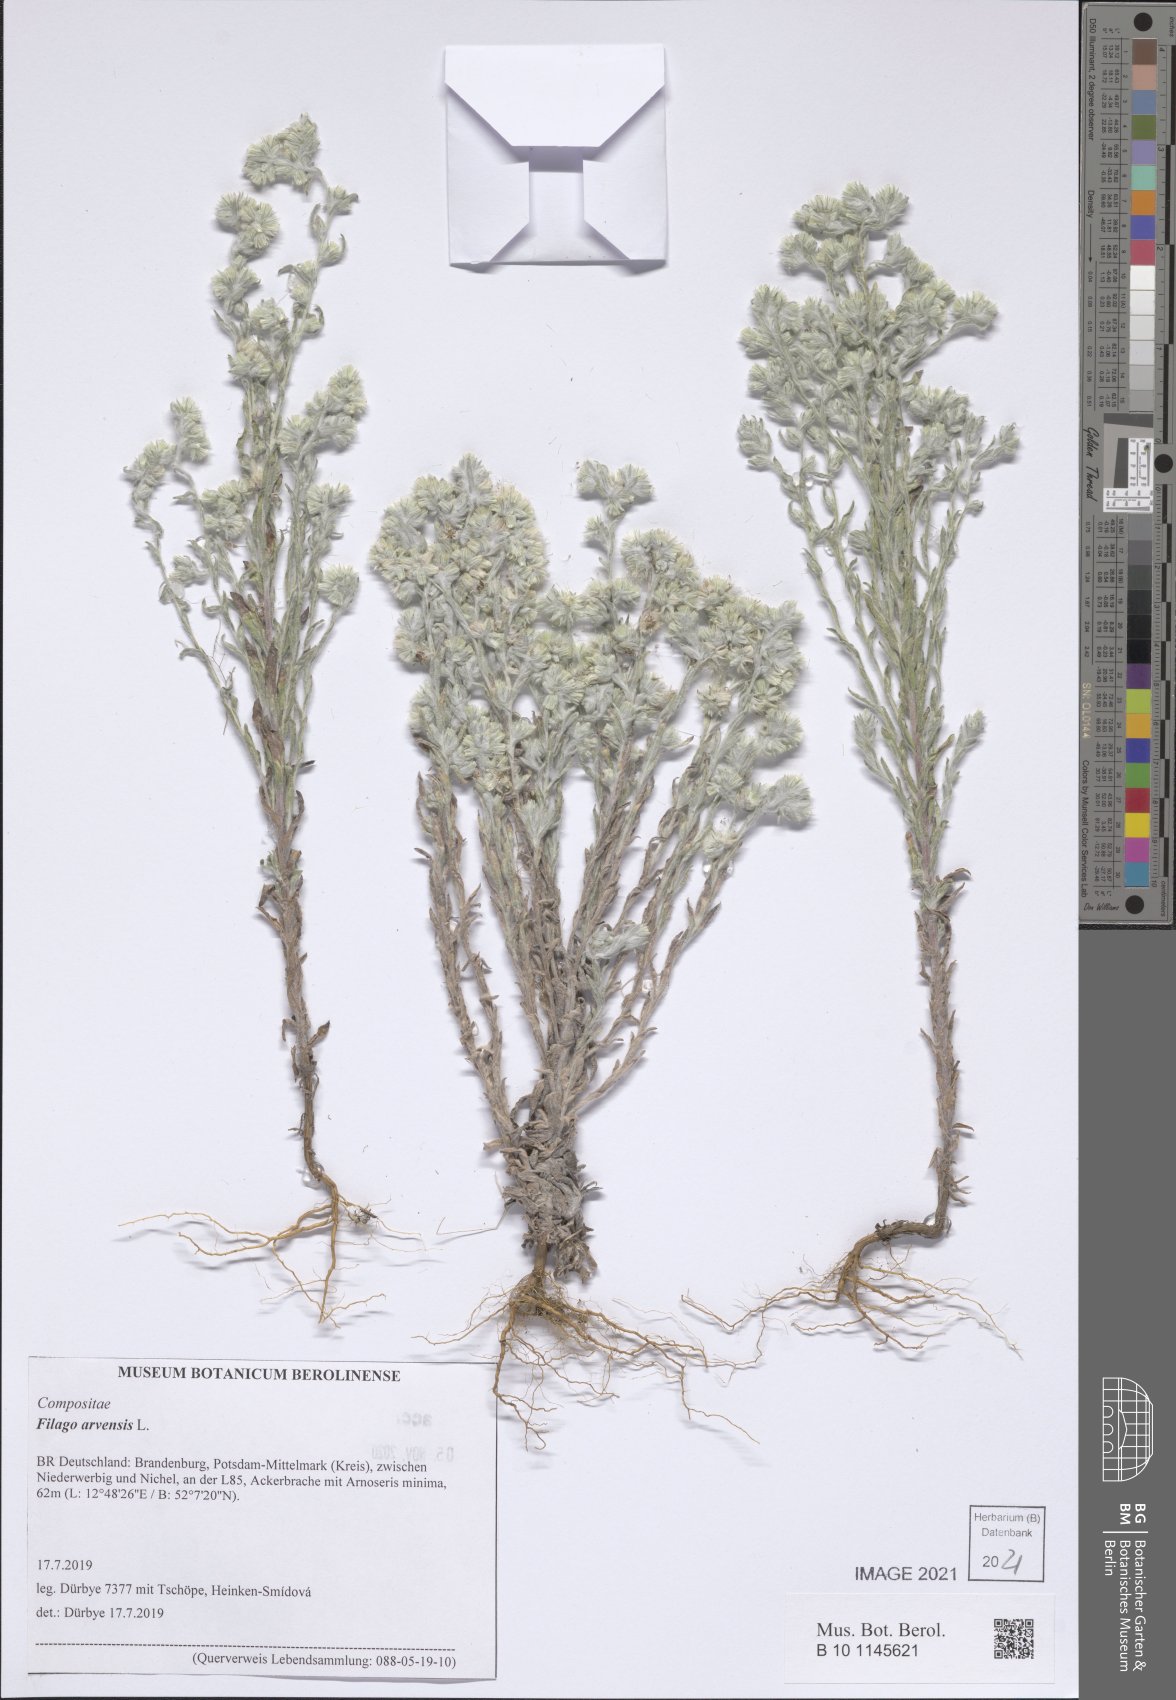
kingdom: Plantae
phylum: Tracheophyta
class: Magnoliopsida
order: Asterales
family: Asteraceae
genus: Filago
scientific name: Filago arvensis
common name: Field cudweed
